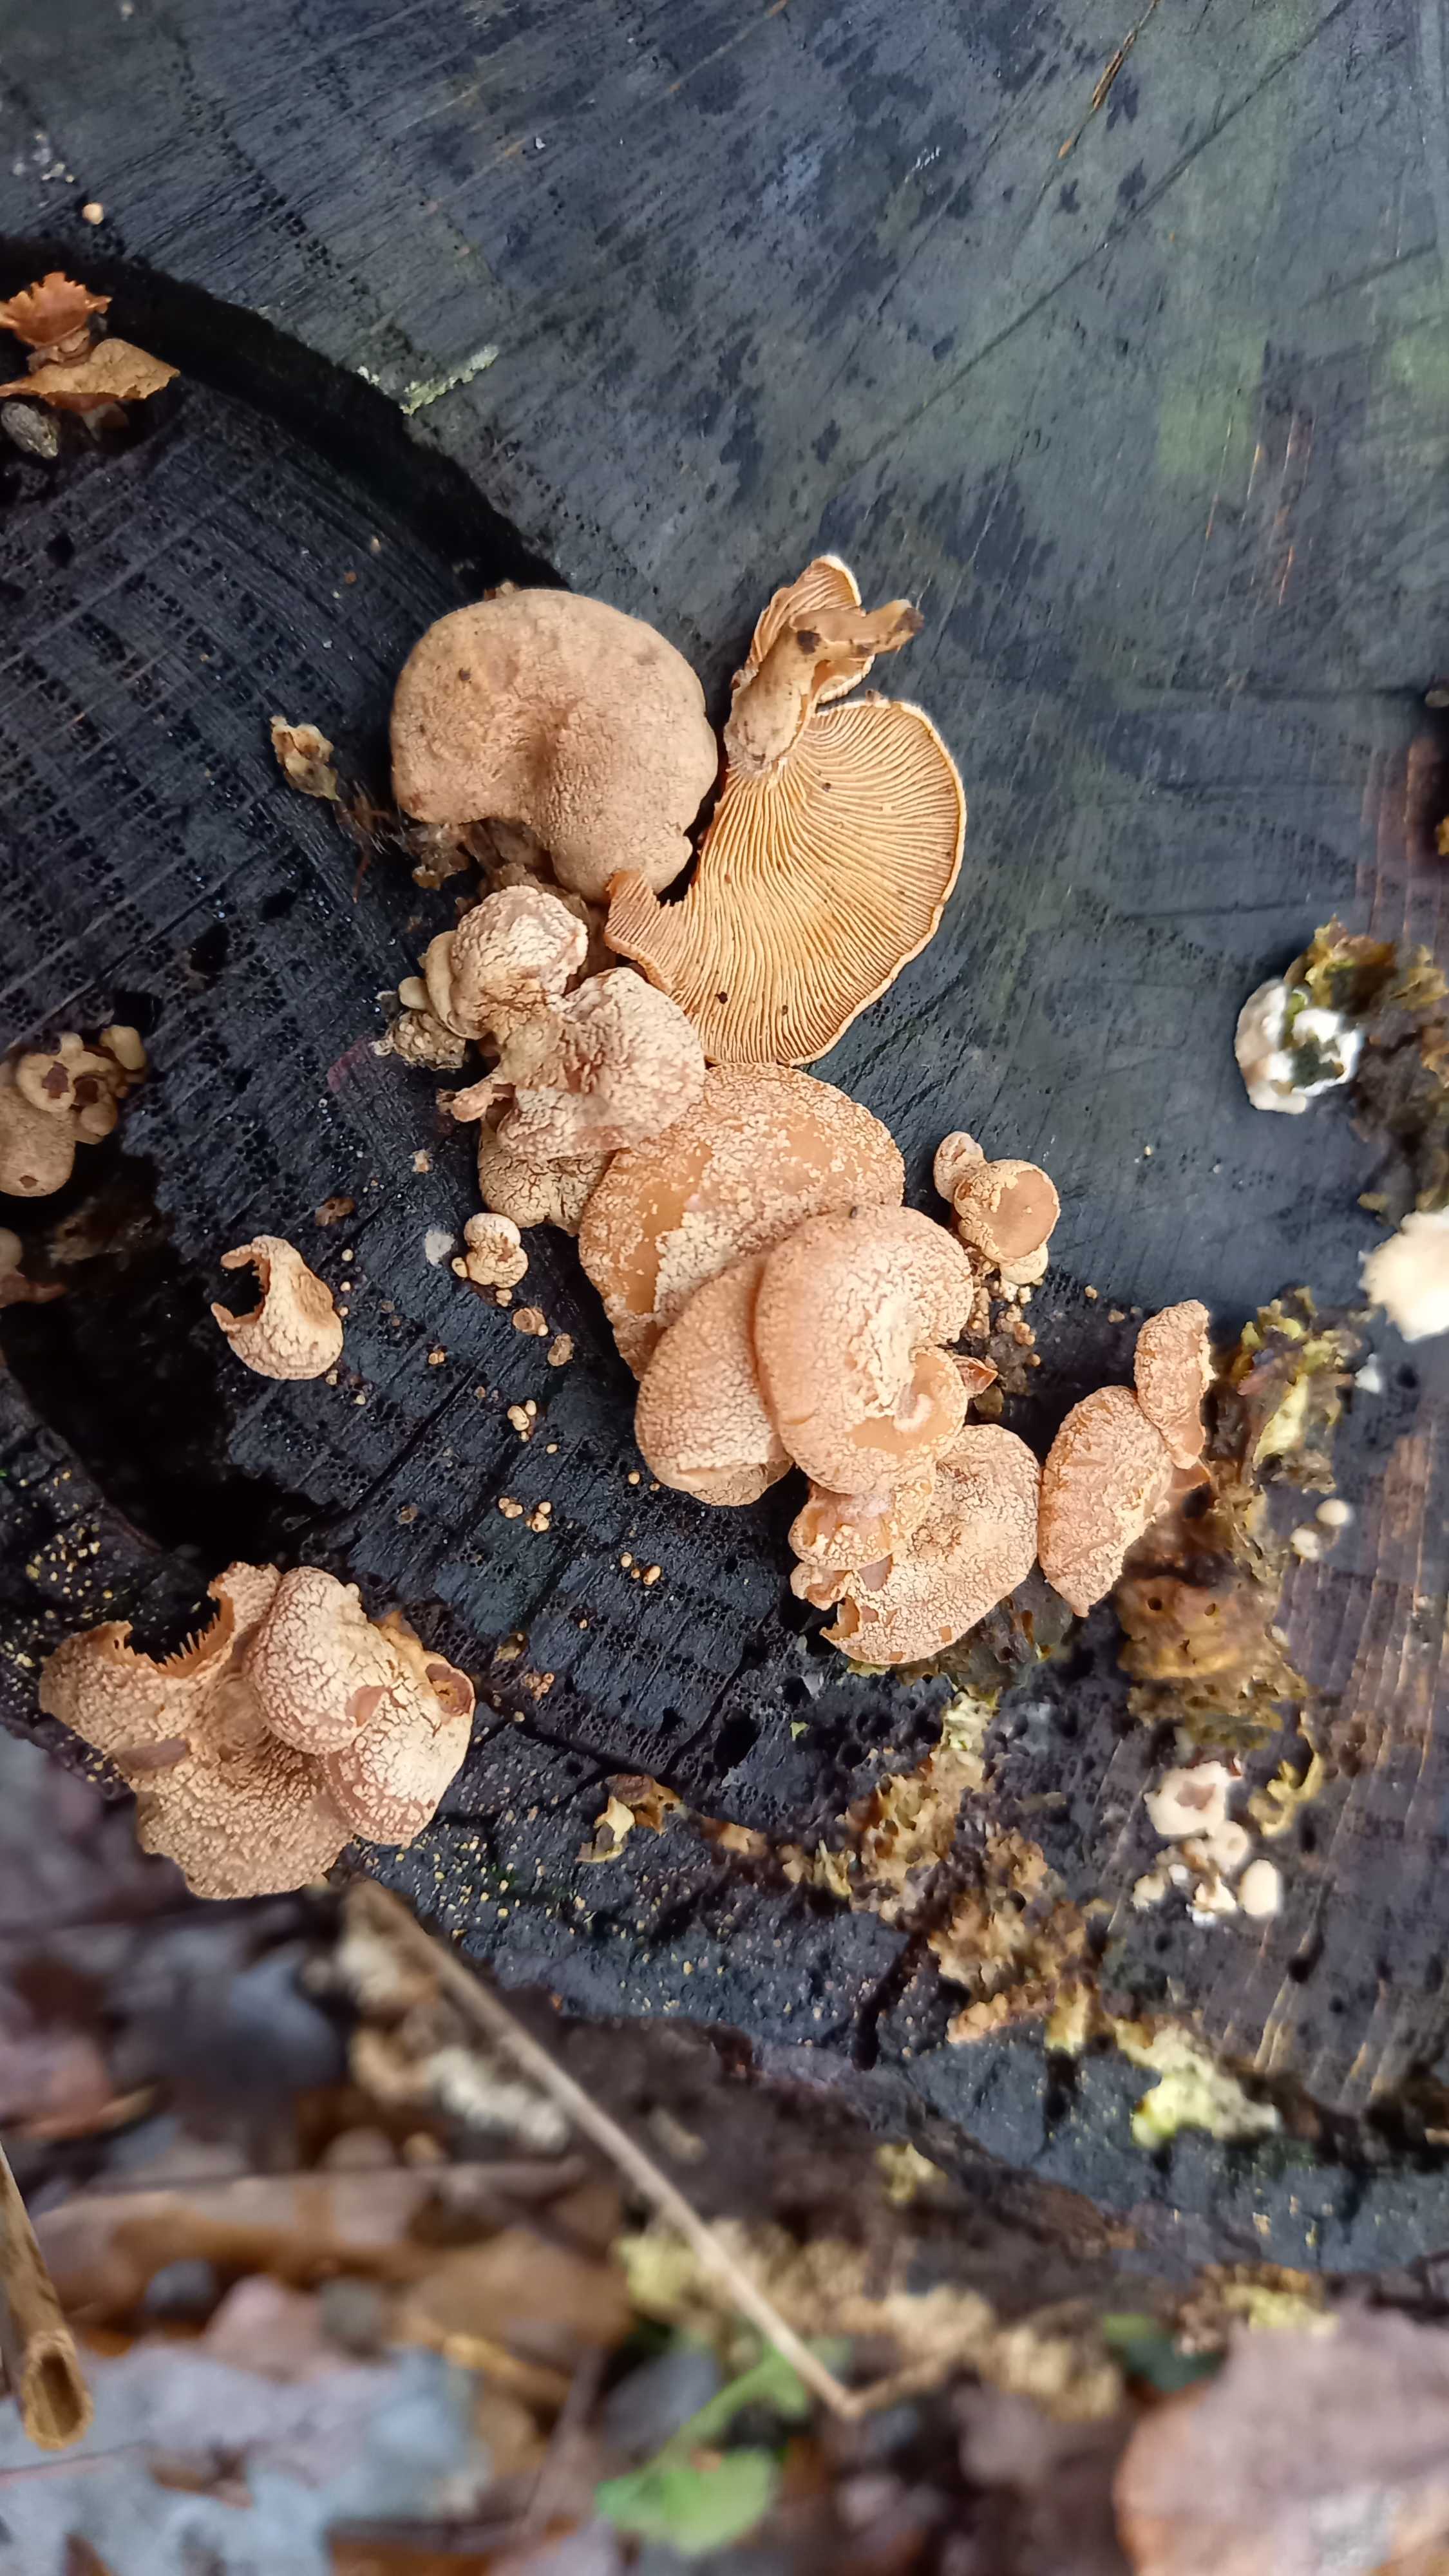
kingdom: Fungi
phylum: Basidiomycota
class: Agaricomycetes
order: Agaricales
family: Mycenaceae
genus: Panellus
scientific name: Panellus stipticus
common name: kliddet epaulethat
